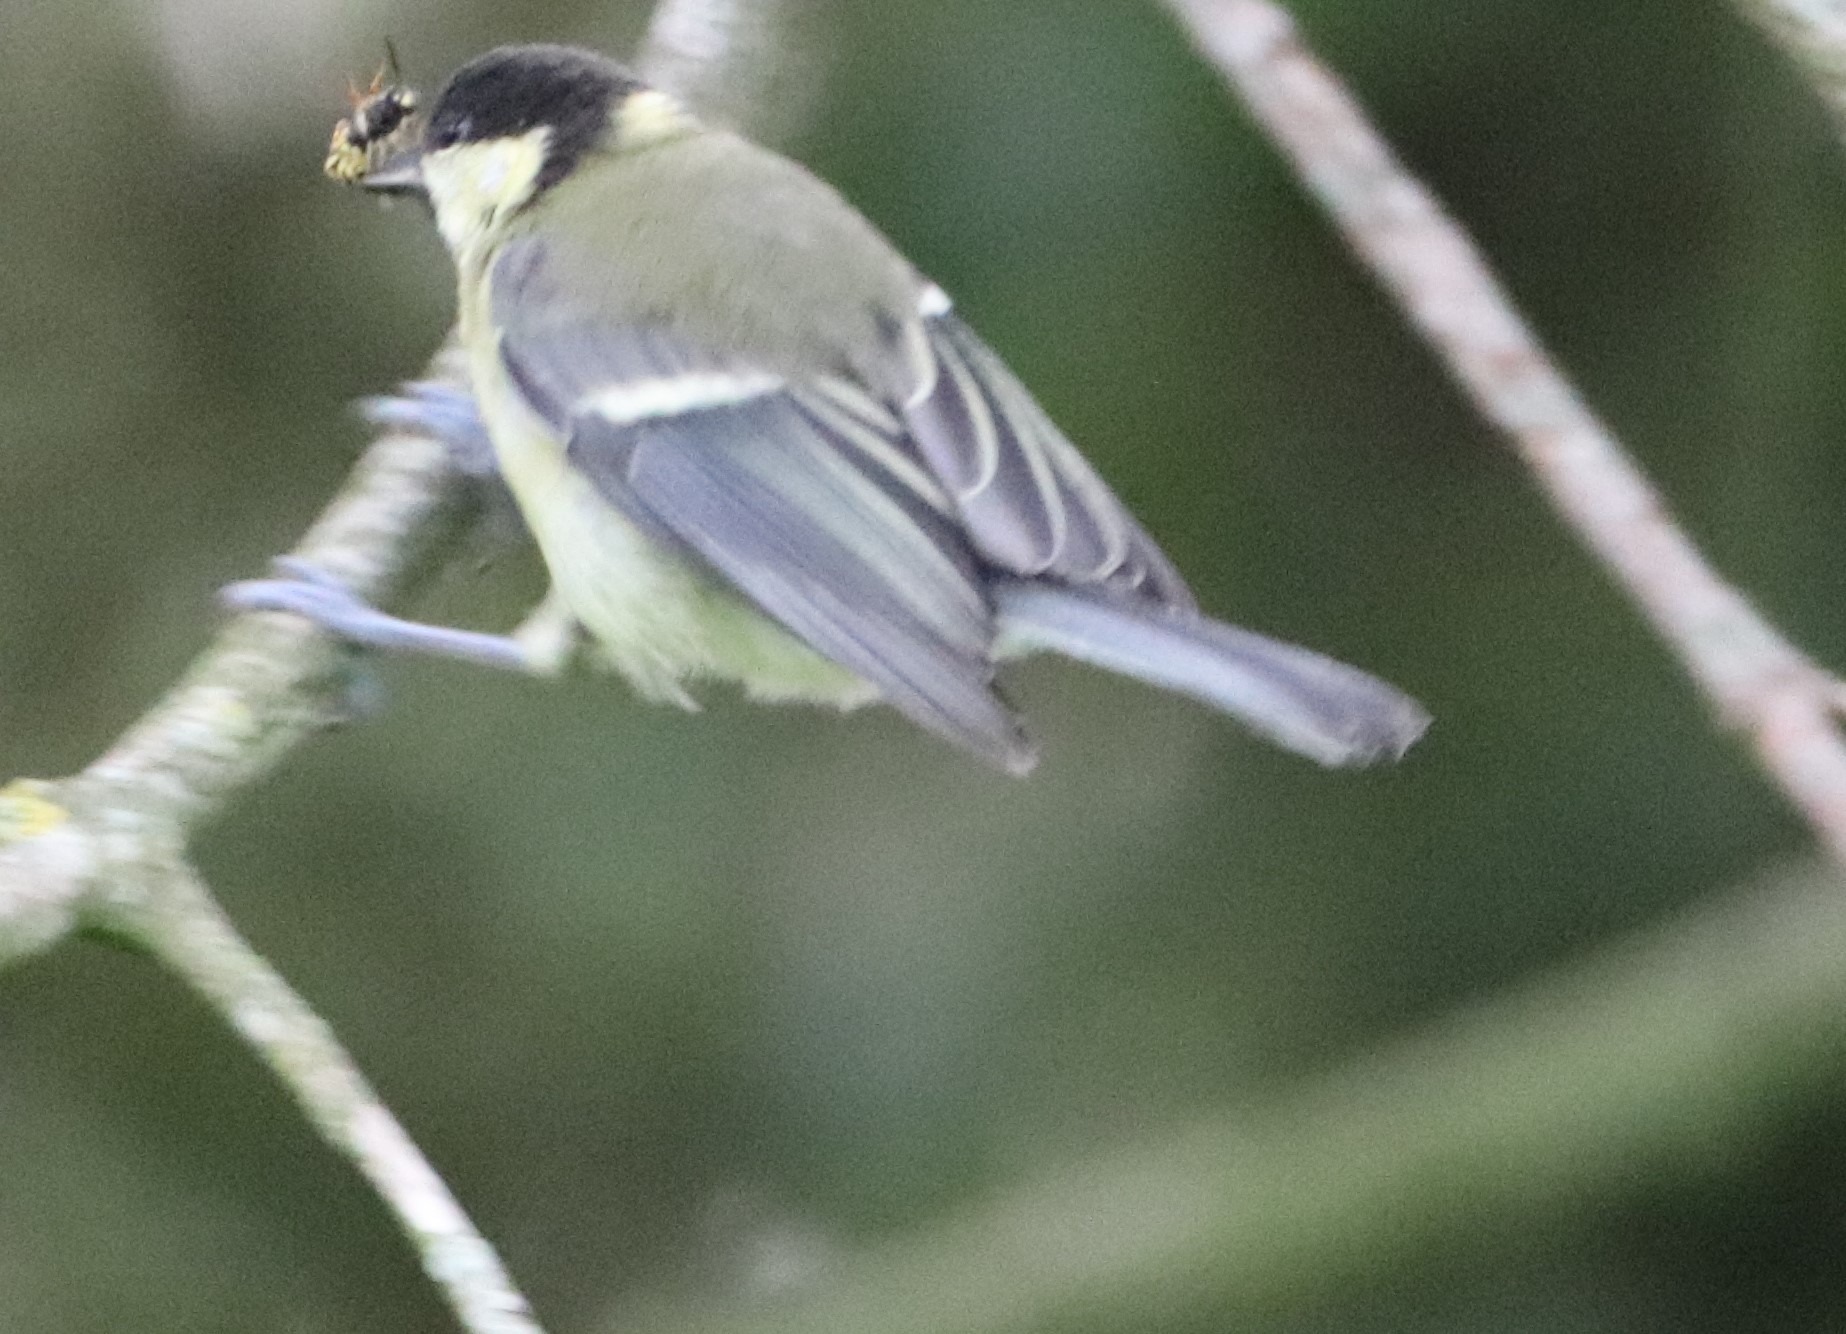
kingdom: Animalia
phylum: Chordata
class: Aves
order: Passeriformes
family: Paridae
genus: Parus
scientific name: Parus major
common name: Musvit
